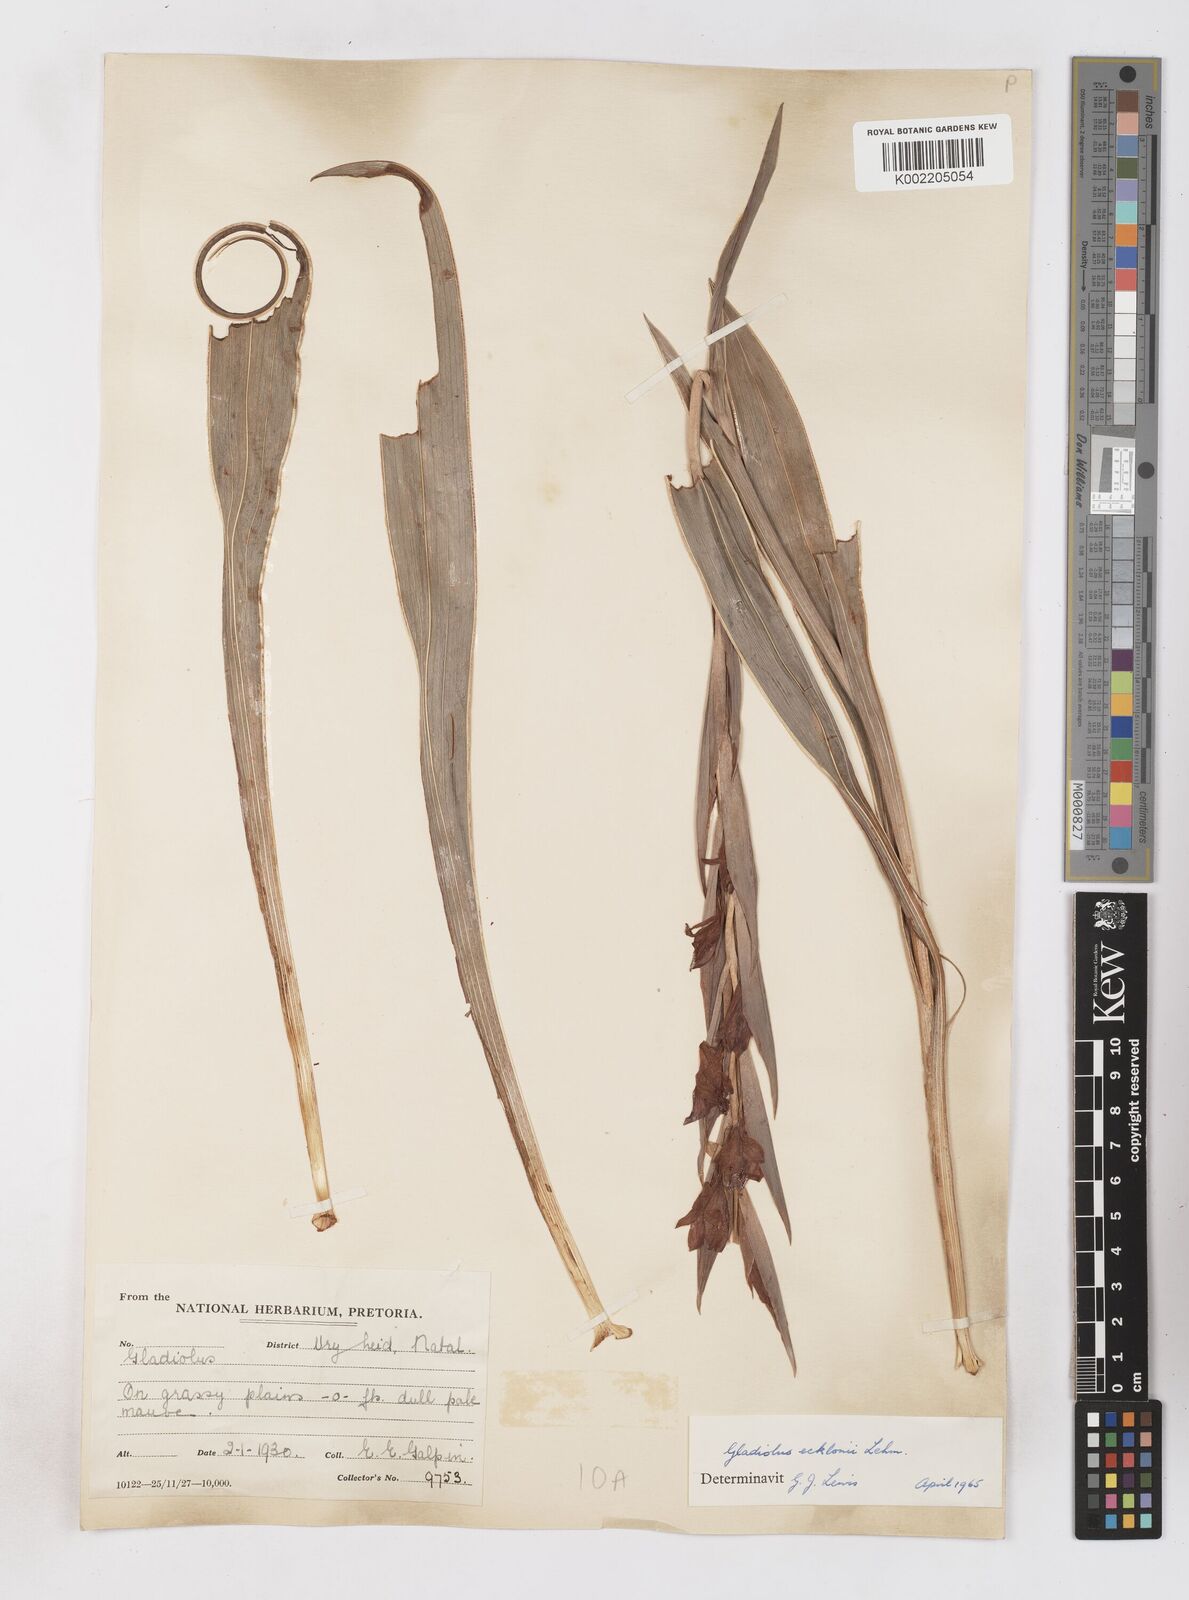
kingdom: Plantae
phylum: Tracheophyta
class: Liliopsida
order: Asparagales
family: Iridaceae
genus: Gladiolus
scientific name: Gladiolus ecklonii
